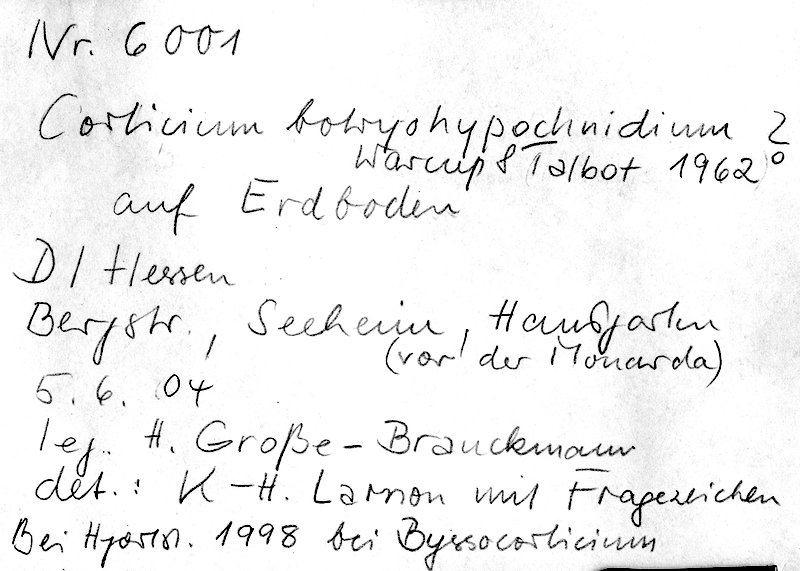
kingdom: Fungi
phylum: Basidiomycota
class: Agaricomycetes
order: Corticiales
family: Corticiaceae
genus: Corticium
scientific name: Corticium
